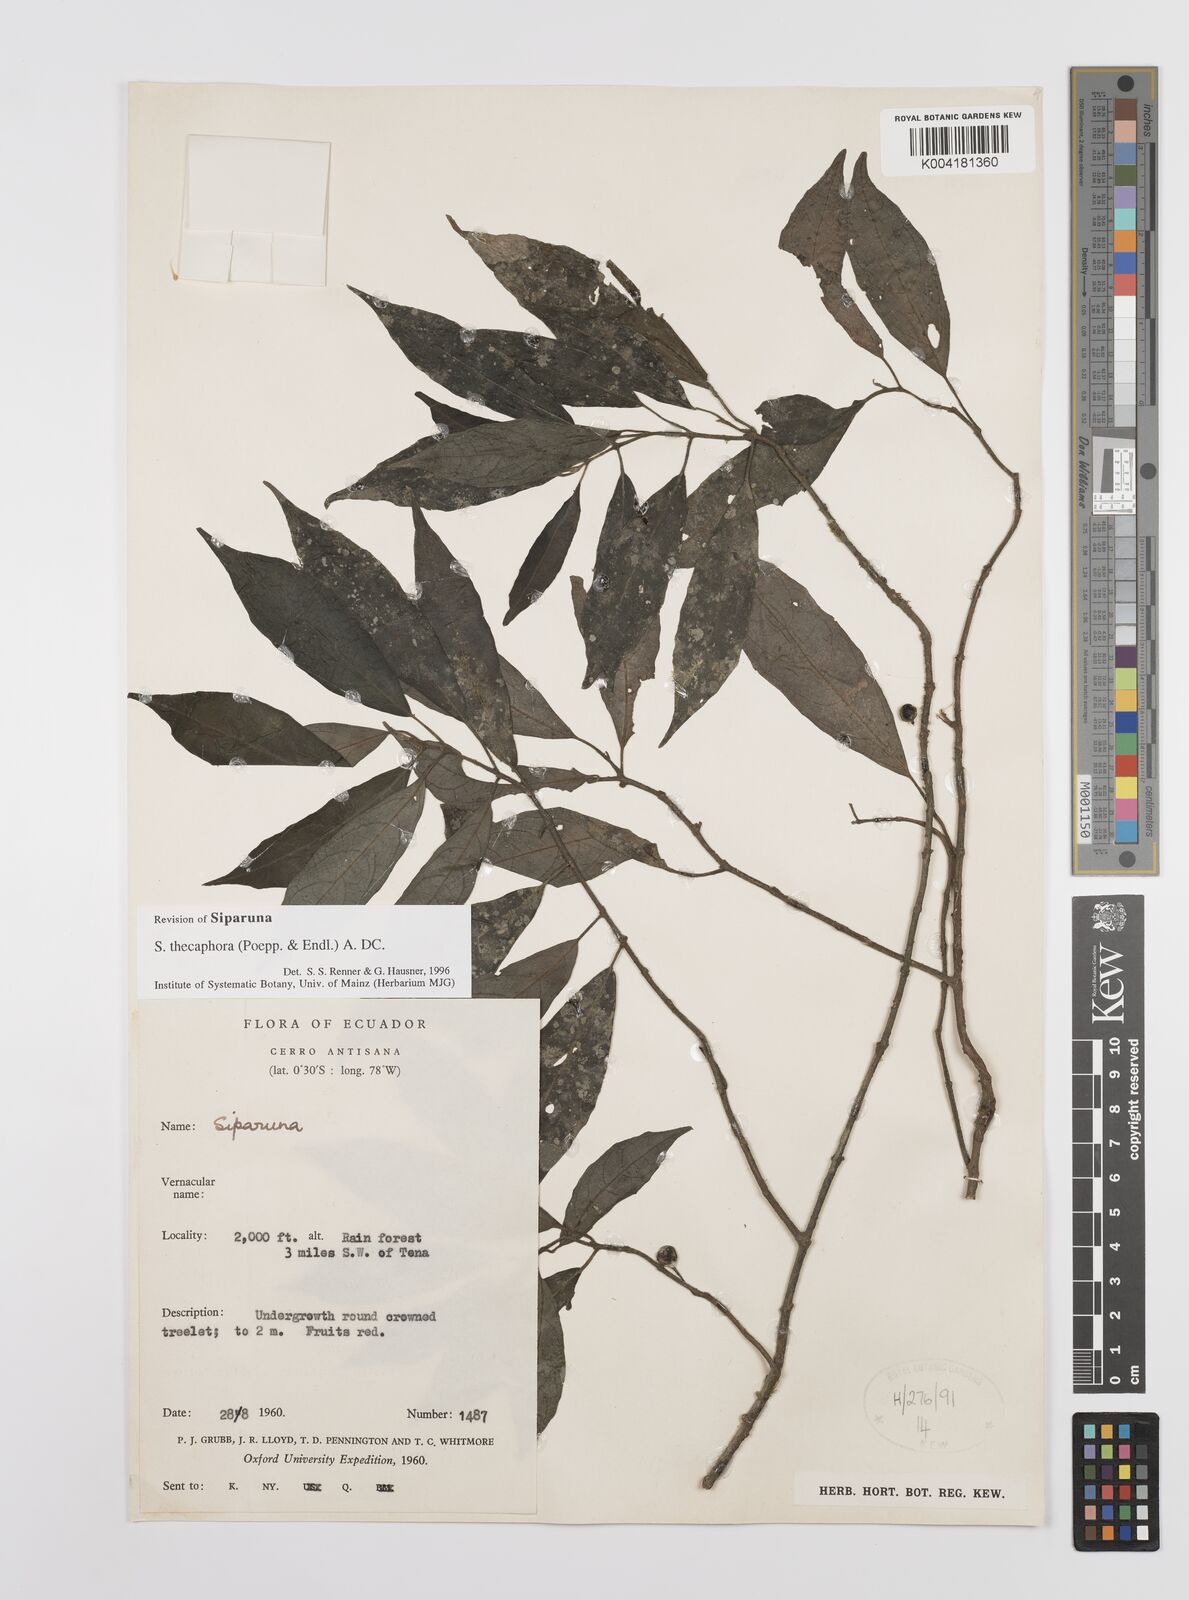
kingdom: Plantae
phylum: Tracheophyta
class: Magnoliopsida
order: Laurales
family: Siparunaceae
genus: Siparuna
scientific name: Siparuna thecaphora
